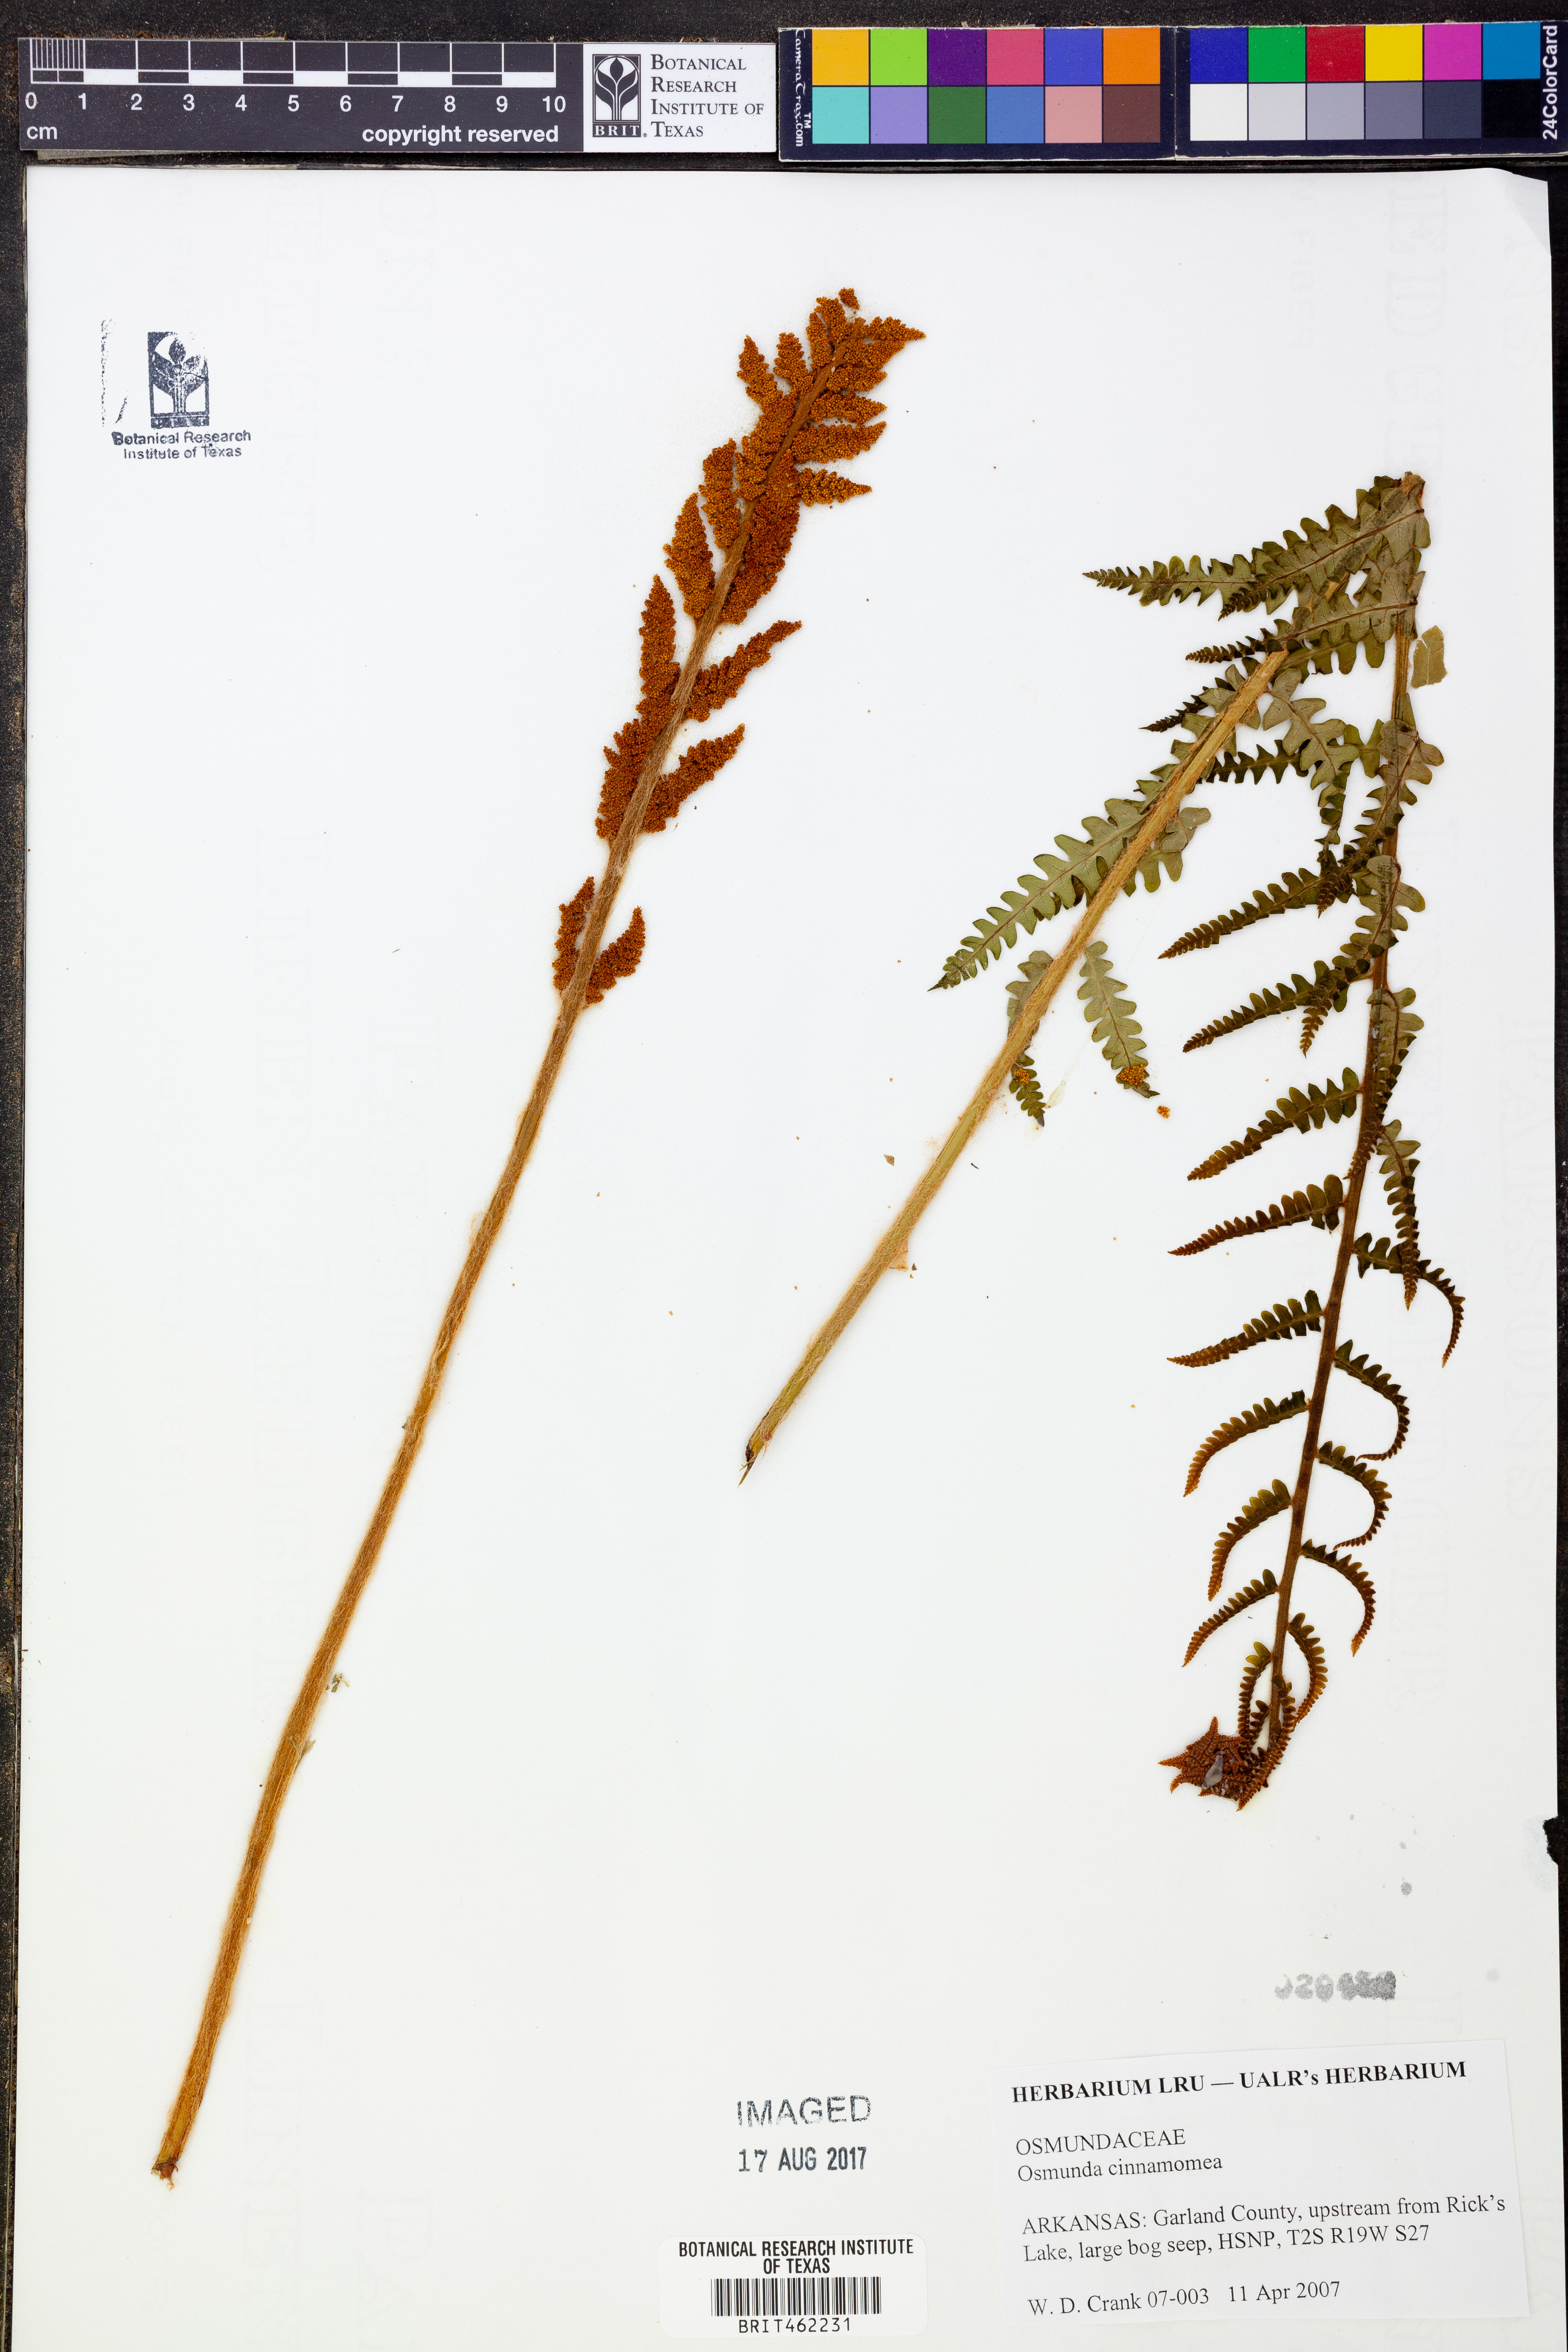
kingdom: Plantae
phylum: Tracheophyta
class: Polypodiopsida
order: Osmundales
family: Osmundaceae
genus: Osmundastrum
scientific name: Osmundastrum cinnamomeum
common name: Cinnamon fern
